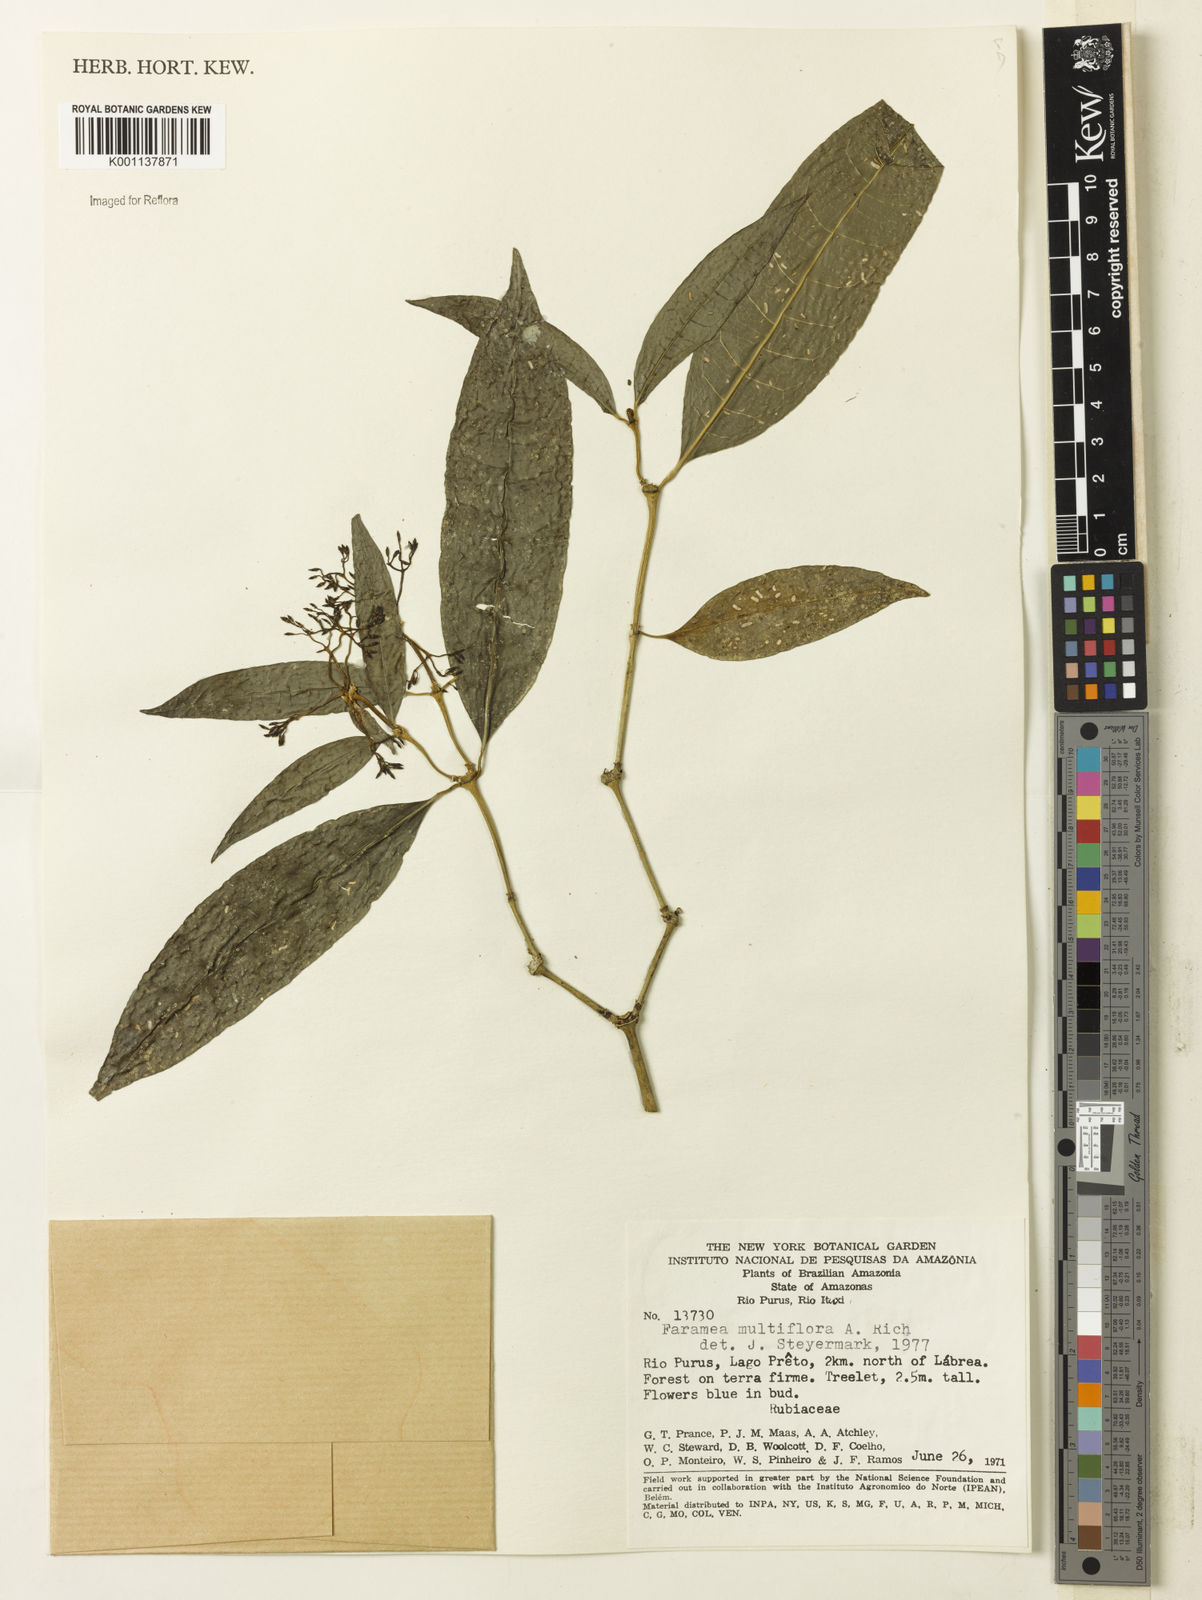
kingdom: Plantae
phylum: Tracheophyta
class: Magnoliopsida
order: Gentianales
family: Rubiaceae
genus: Faramea
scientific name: Faramea multiflora
